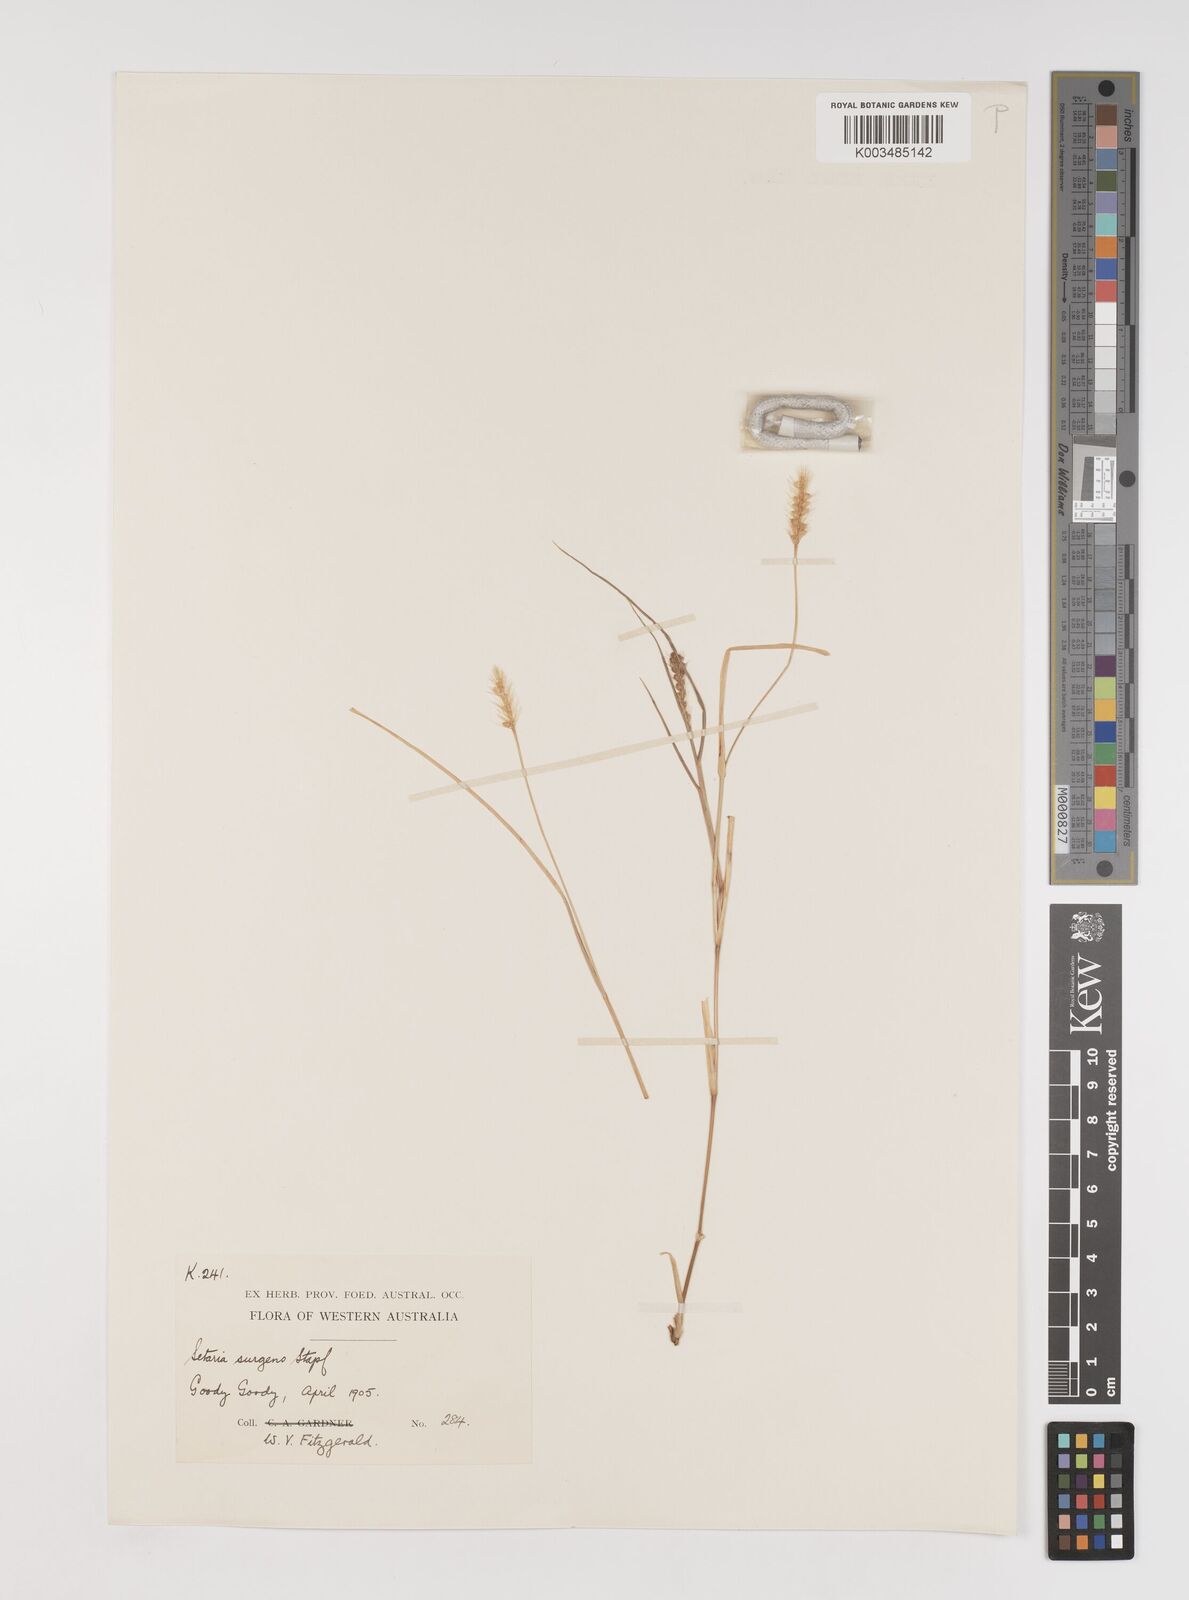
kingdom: Plantae
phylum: Tracheophyta
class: Liliopsida
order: Poales
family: Poaceae
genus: Setaria
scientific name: Setaria apiculata
